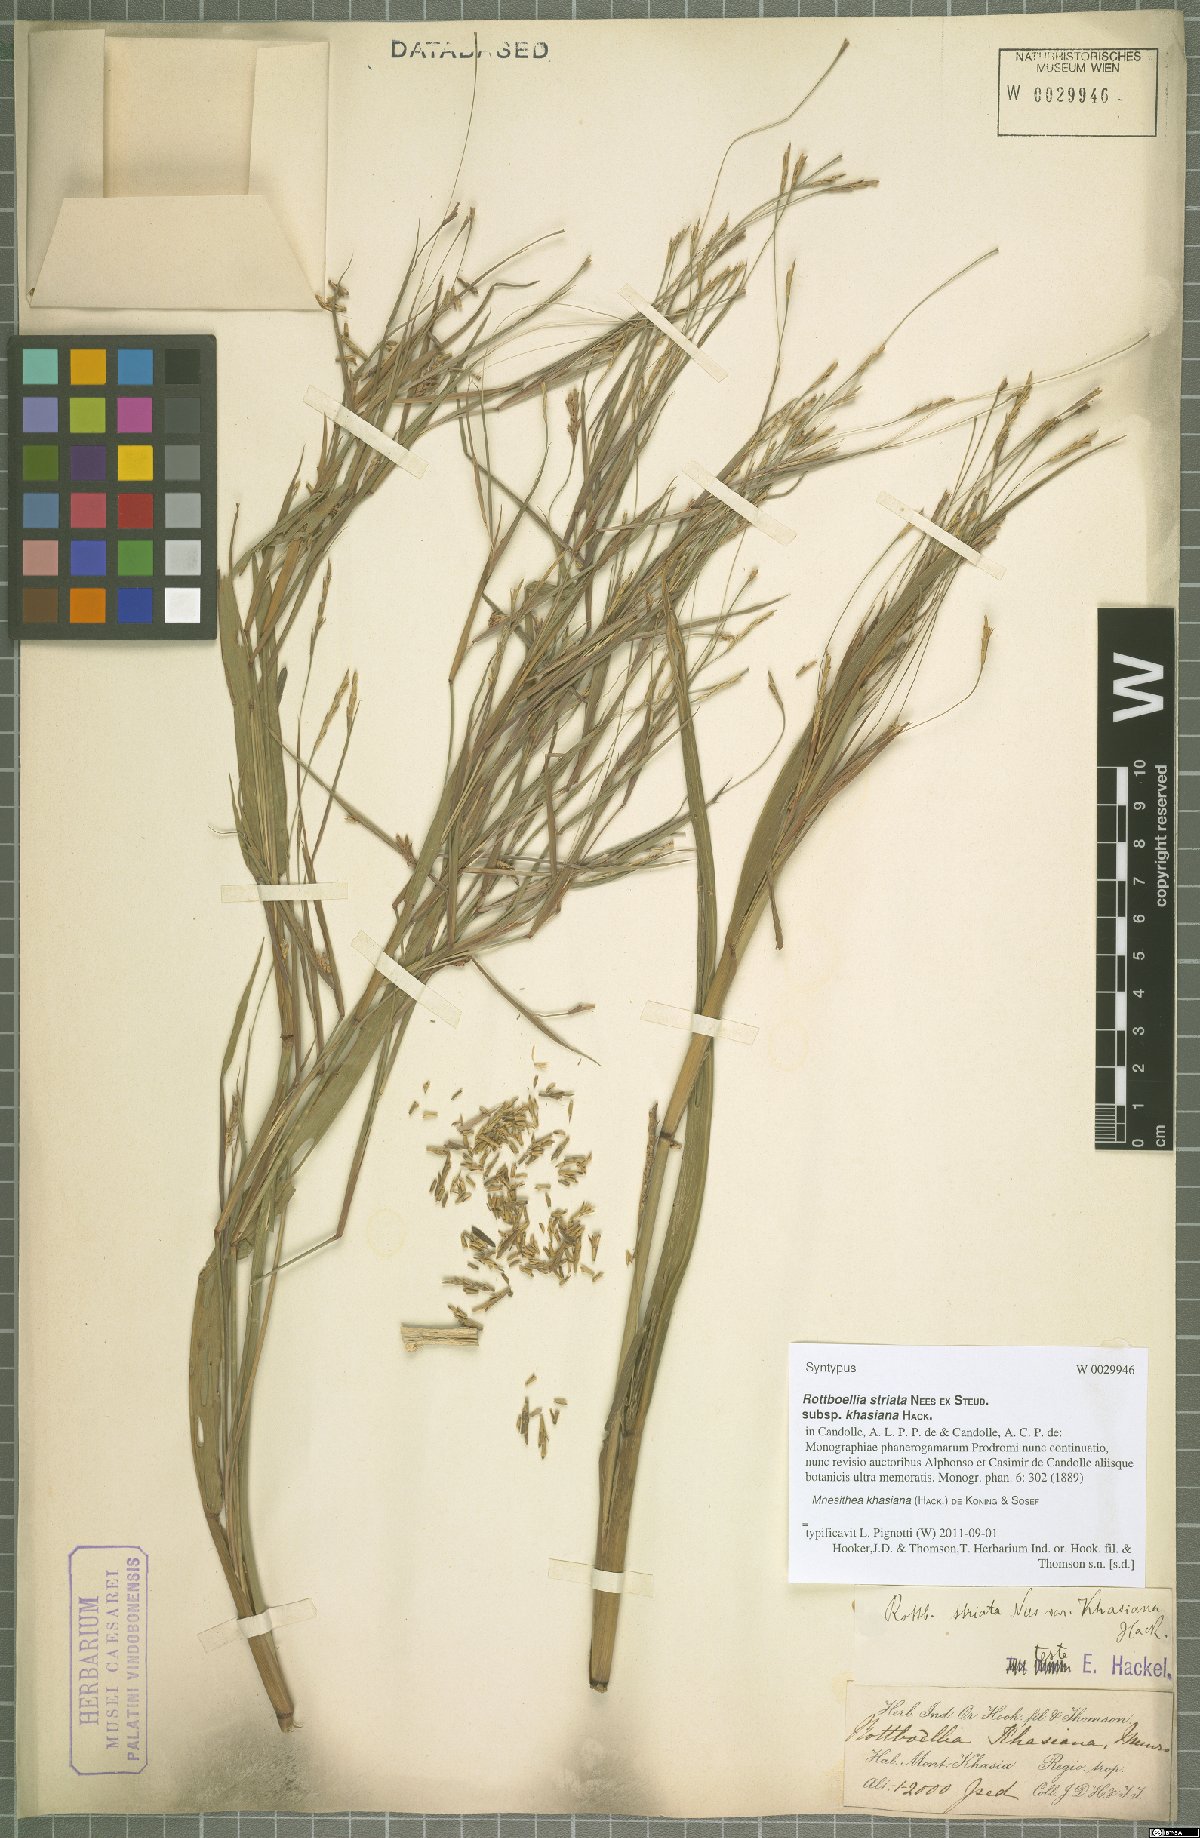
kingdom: Plantae
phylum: Tracheophyta
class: Liliopsida
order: Poales
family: Poaceae
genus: Rottboellia
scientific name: Rottboellia striata
